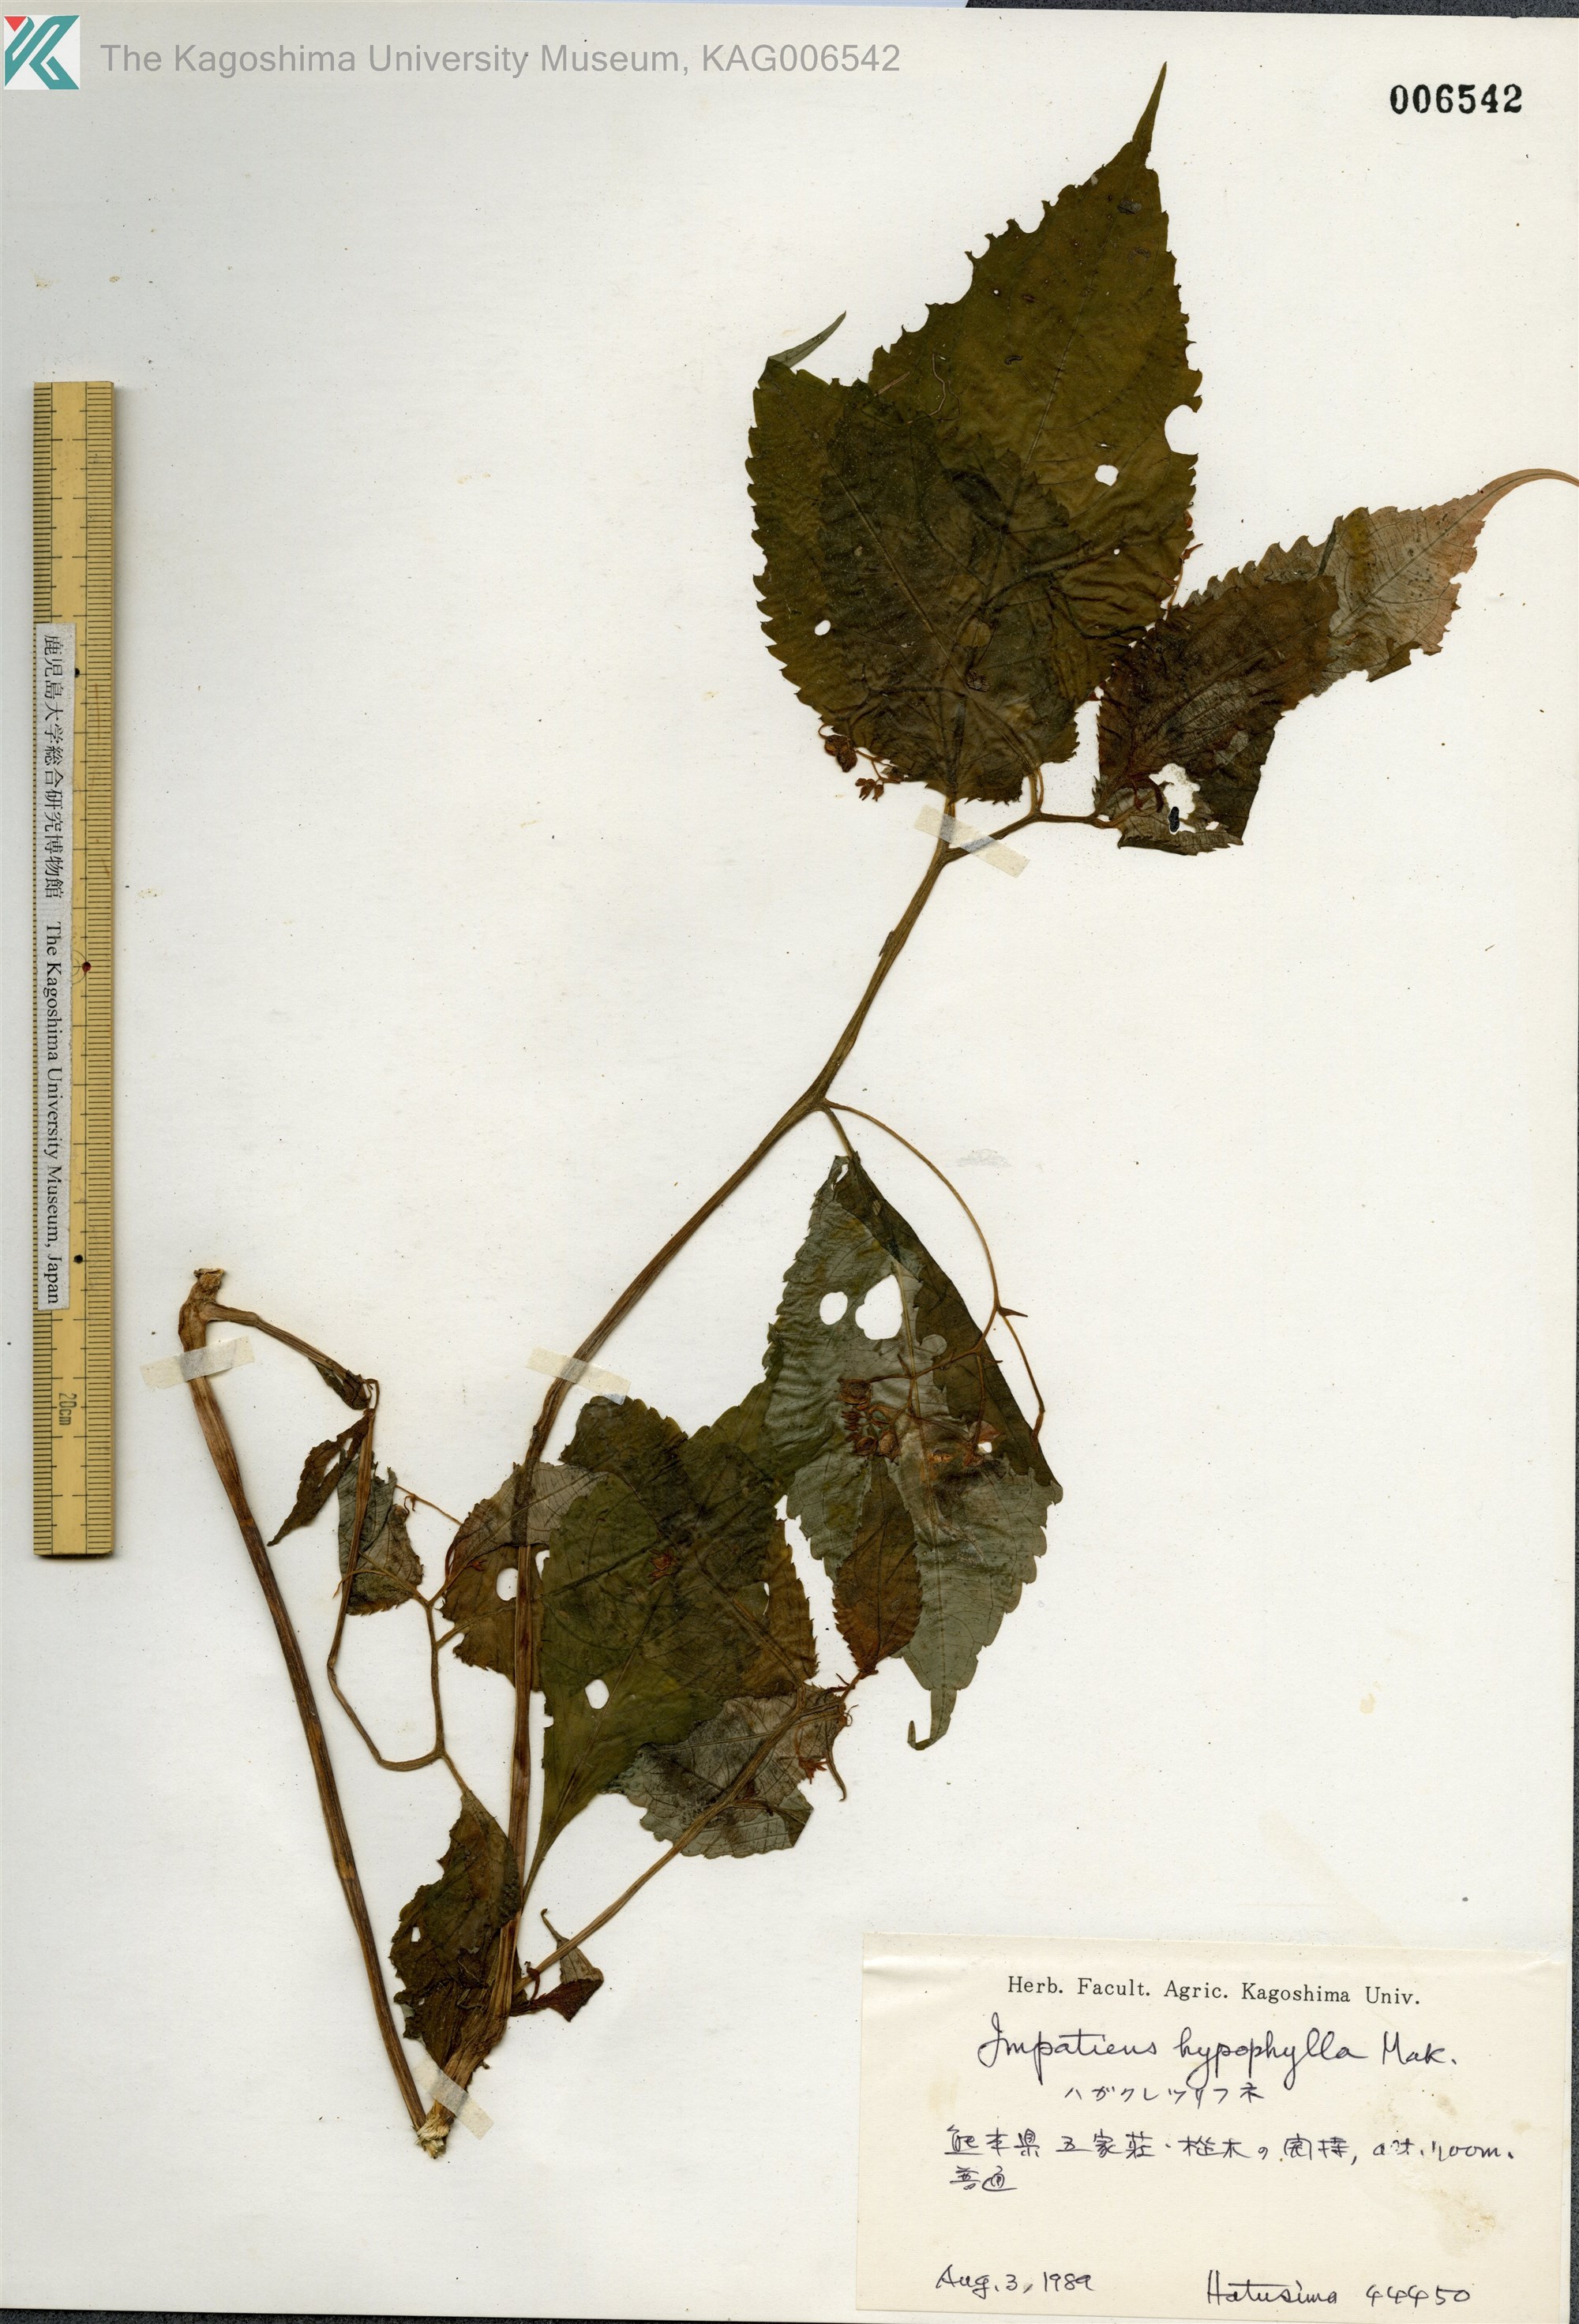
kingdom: Plantae
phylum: Tracheophyta
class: Magnoliopsida
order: Ericales
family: Balsaminaceae
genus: Impatiens
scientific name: Impatiens hypophylla
